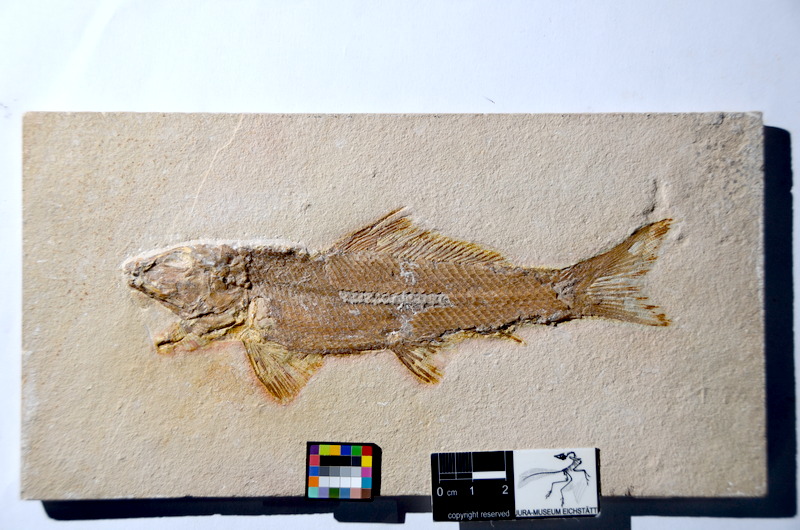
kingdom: Animalia
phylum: Chordata
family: Ophiopsiellidae
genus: Ophiopsiella
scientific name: Ophiopsiella attenuata
